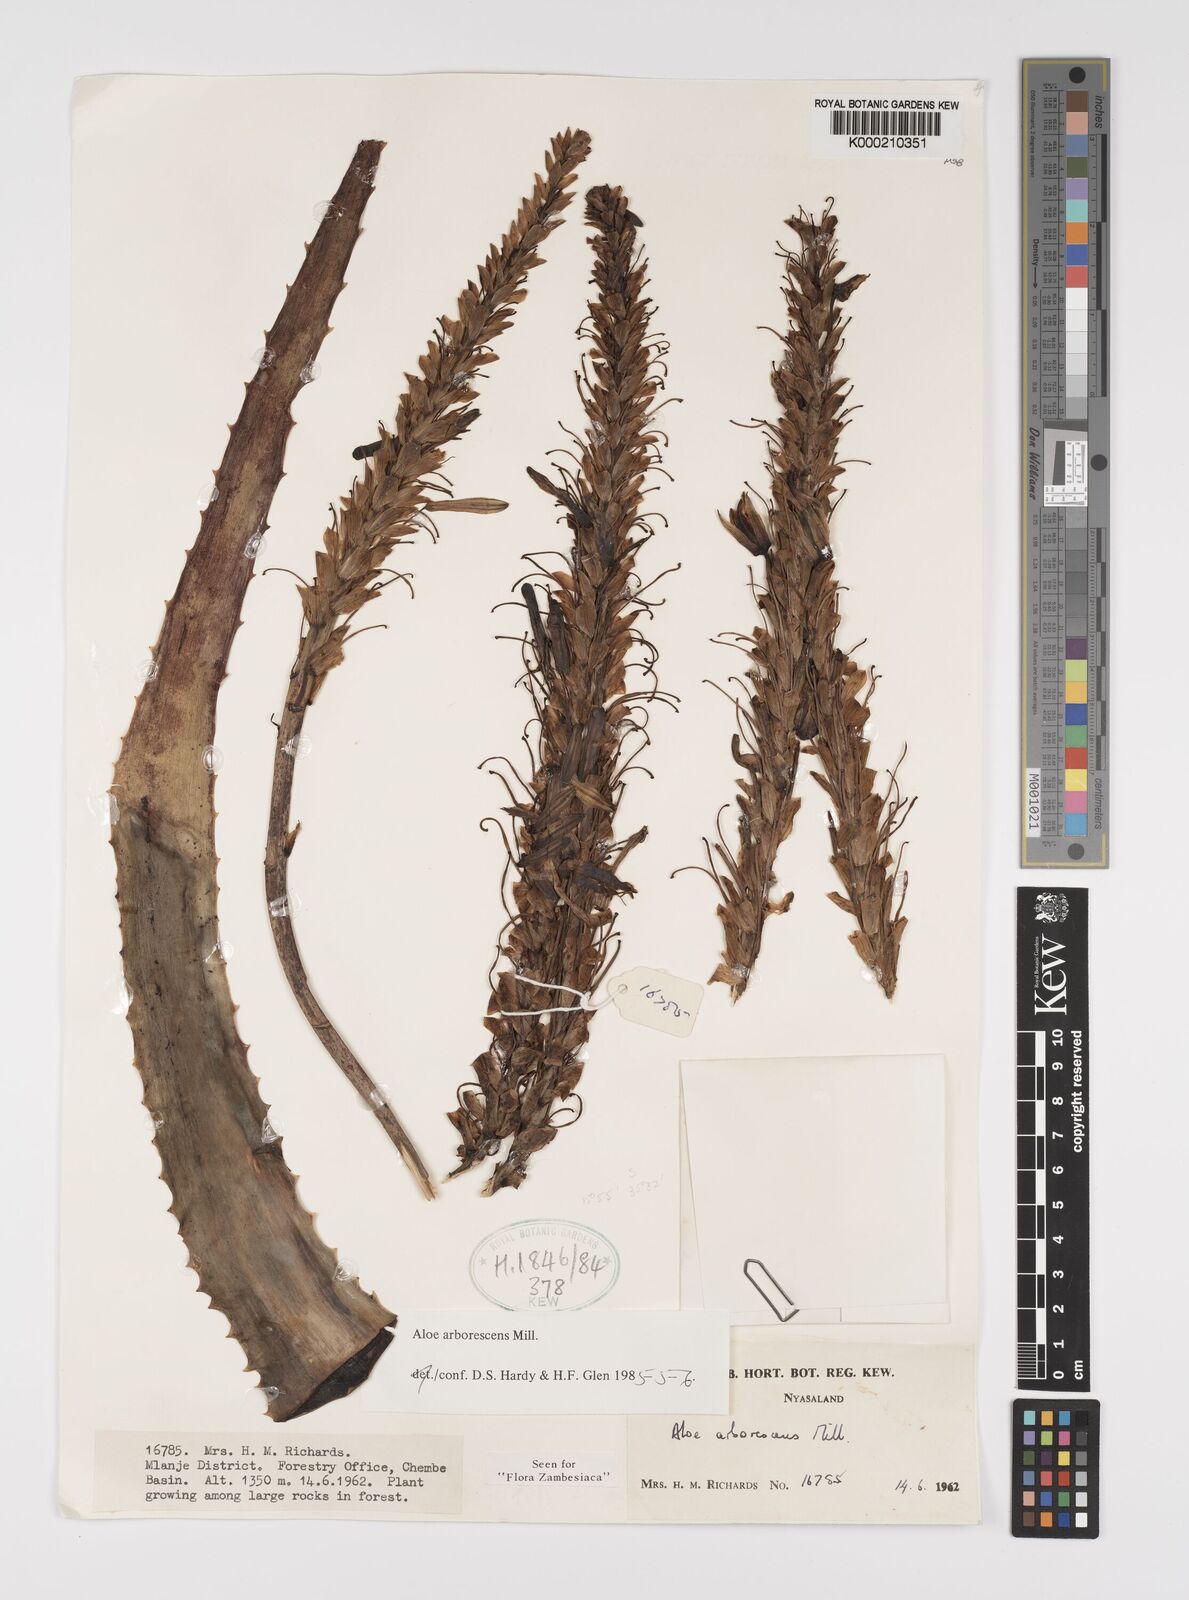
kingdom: Plantae
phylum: Tracheophyta
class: Liliopsida
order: Asparagales
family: Asphodelaceae
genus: Aloe
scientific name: Aloe arborescens
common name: Candelabra aloe
